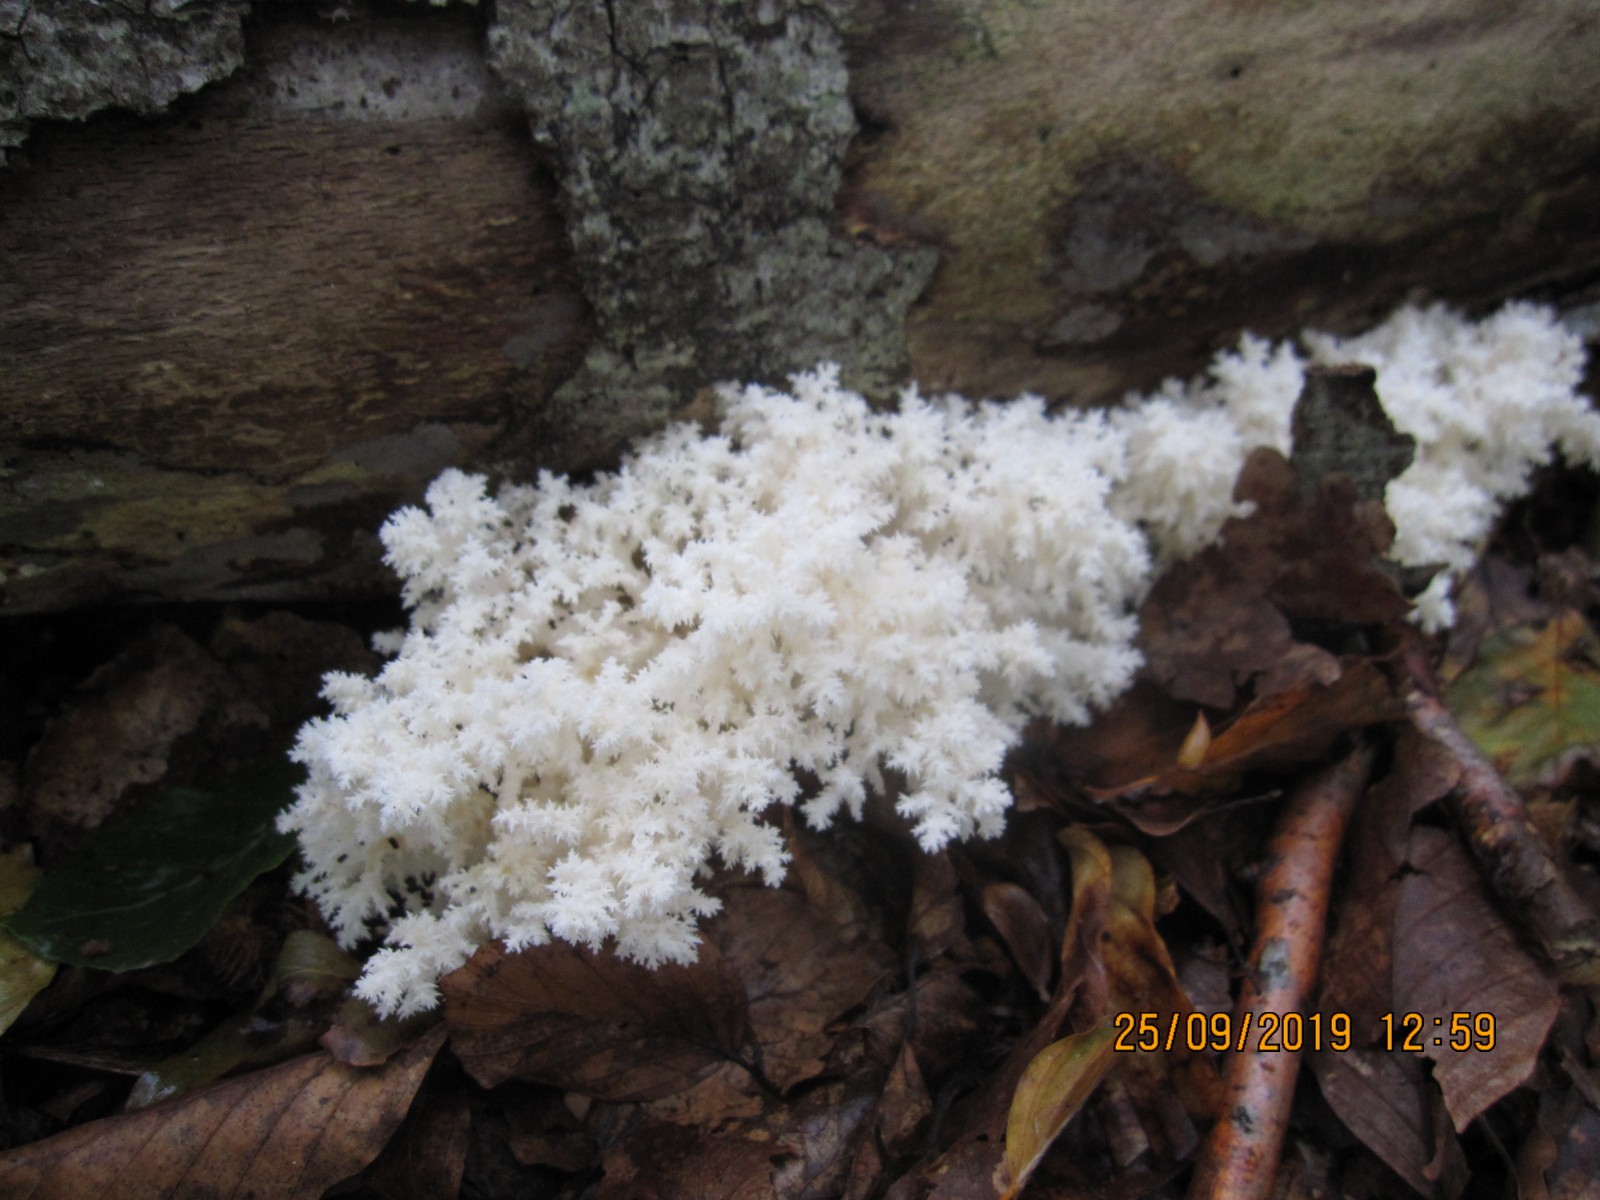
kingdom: Fungi
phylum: Basidiomycota
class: Agaricomycetes
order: Russulales
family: Hericiaceae
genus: Hericium
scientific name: Hericium coralloides
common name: koralpigsvamp
